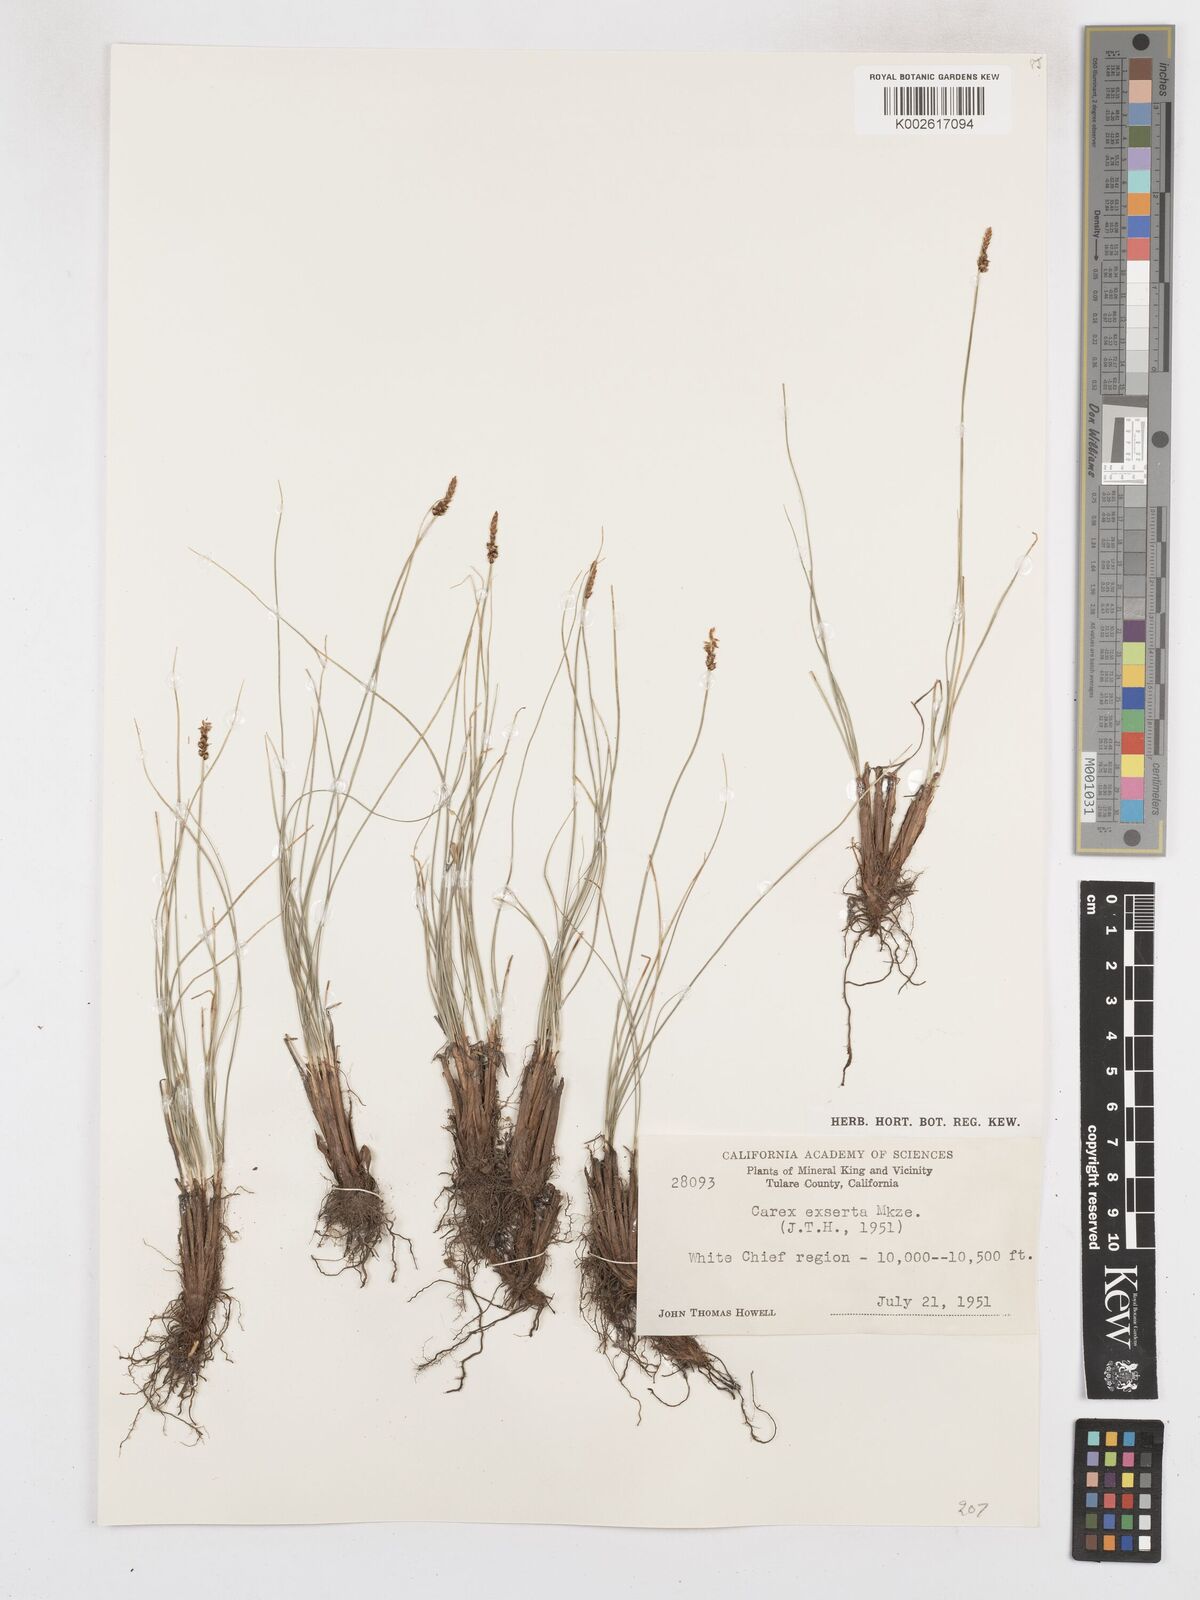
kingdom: Plantae
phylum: Tracheophyta
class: Liliopsida
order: Poales
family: Cyperaceae
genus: Carex
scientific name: Carex glossostigma
